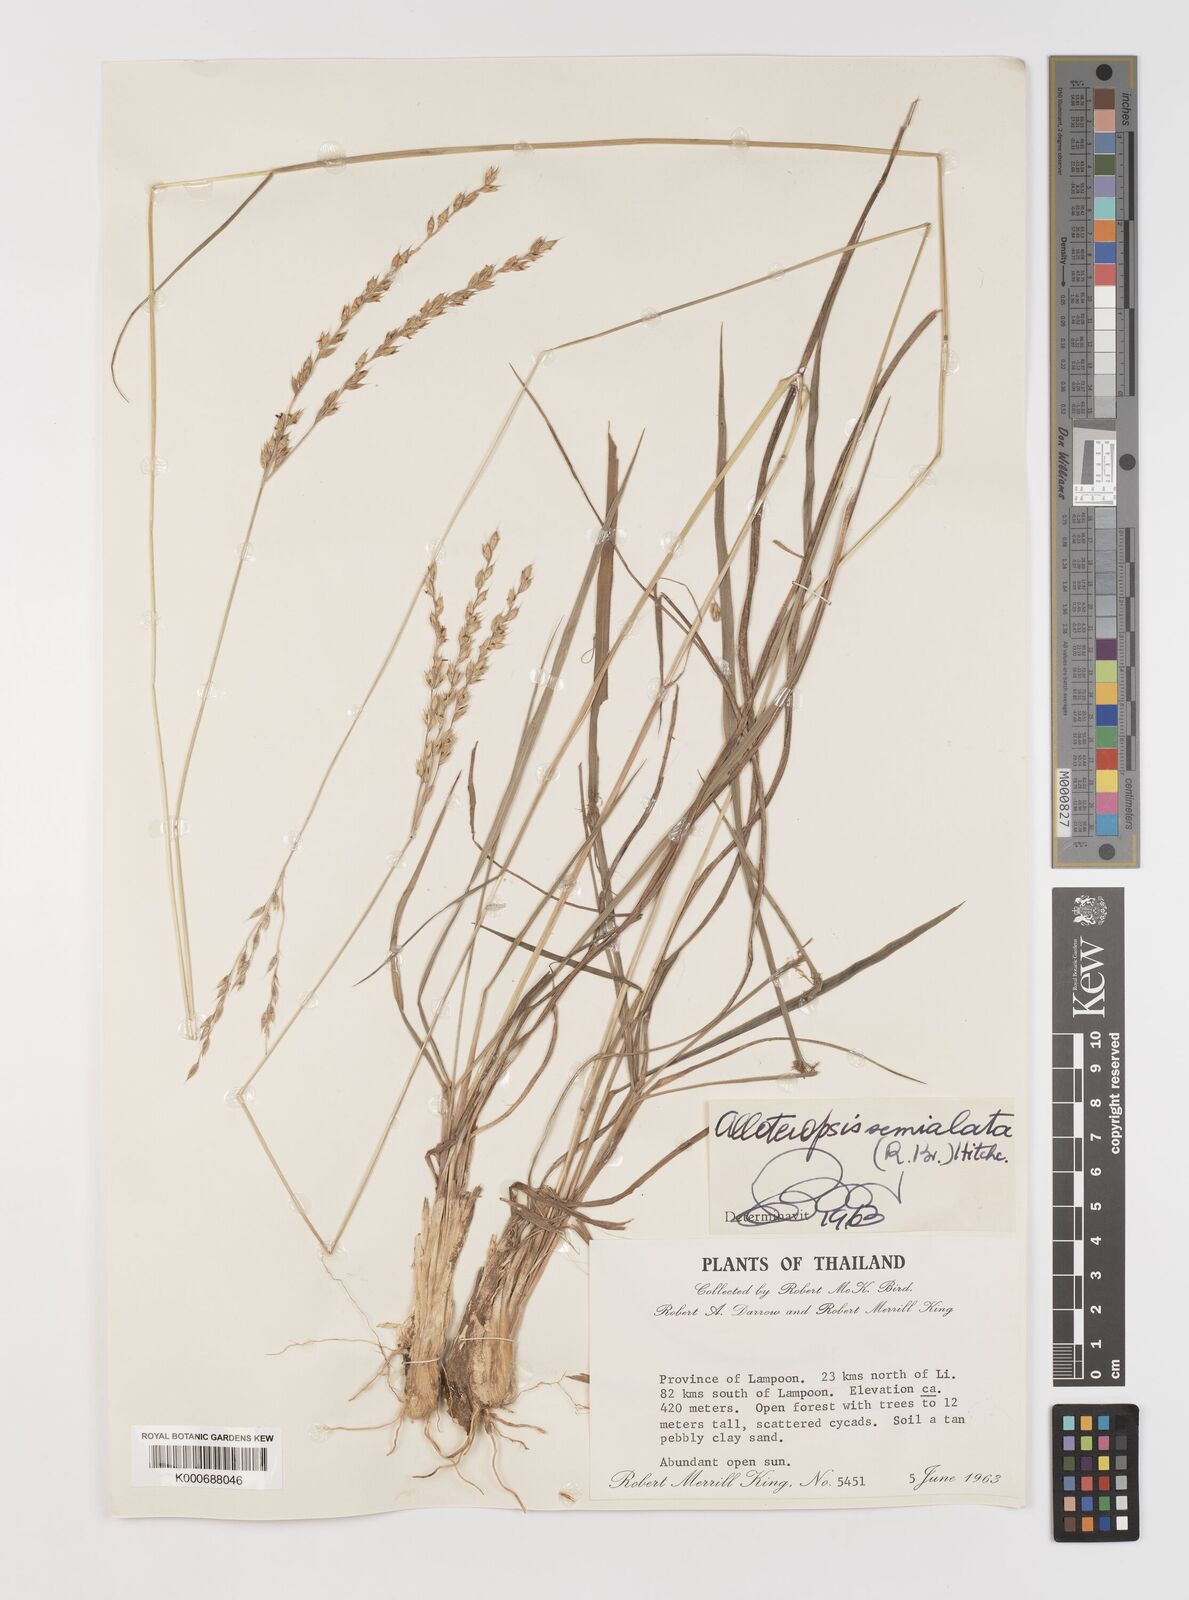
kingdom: Plantae
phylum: Tracheophyta
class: Liliopsida
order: Poales
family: Poaceae
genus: Alloteropsis
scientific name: Alloteropsis semialata
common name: Cockatoo grass
